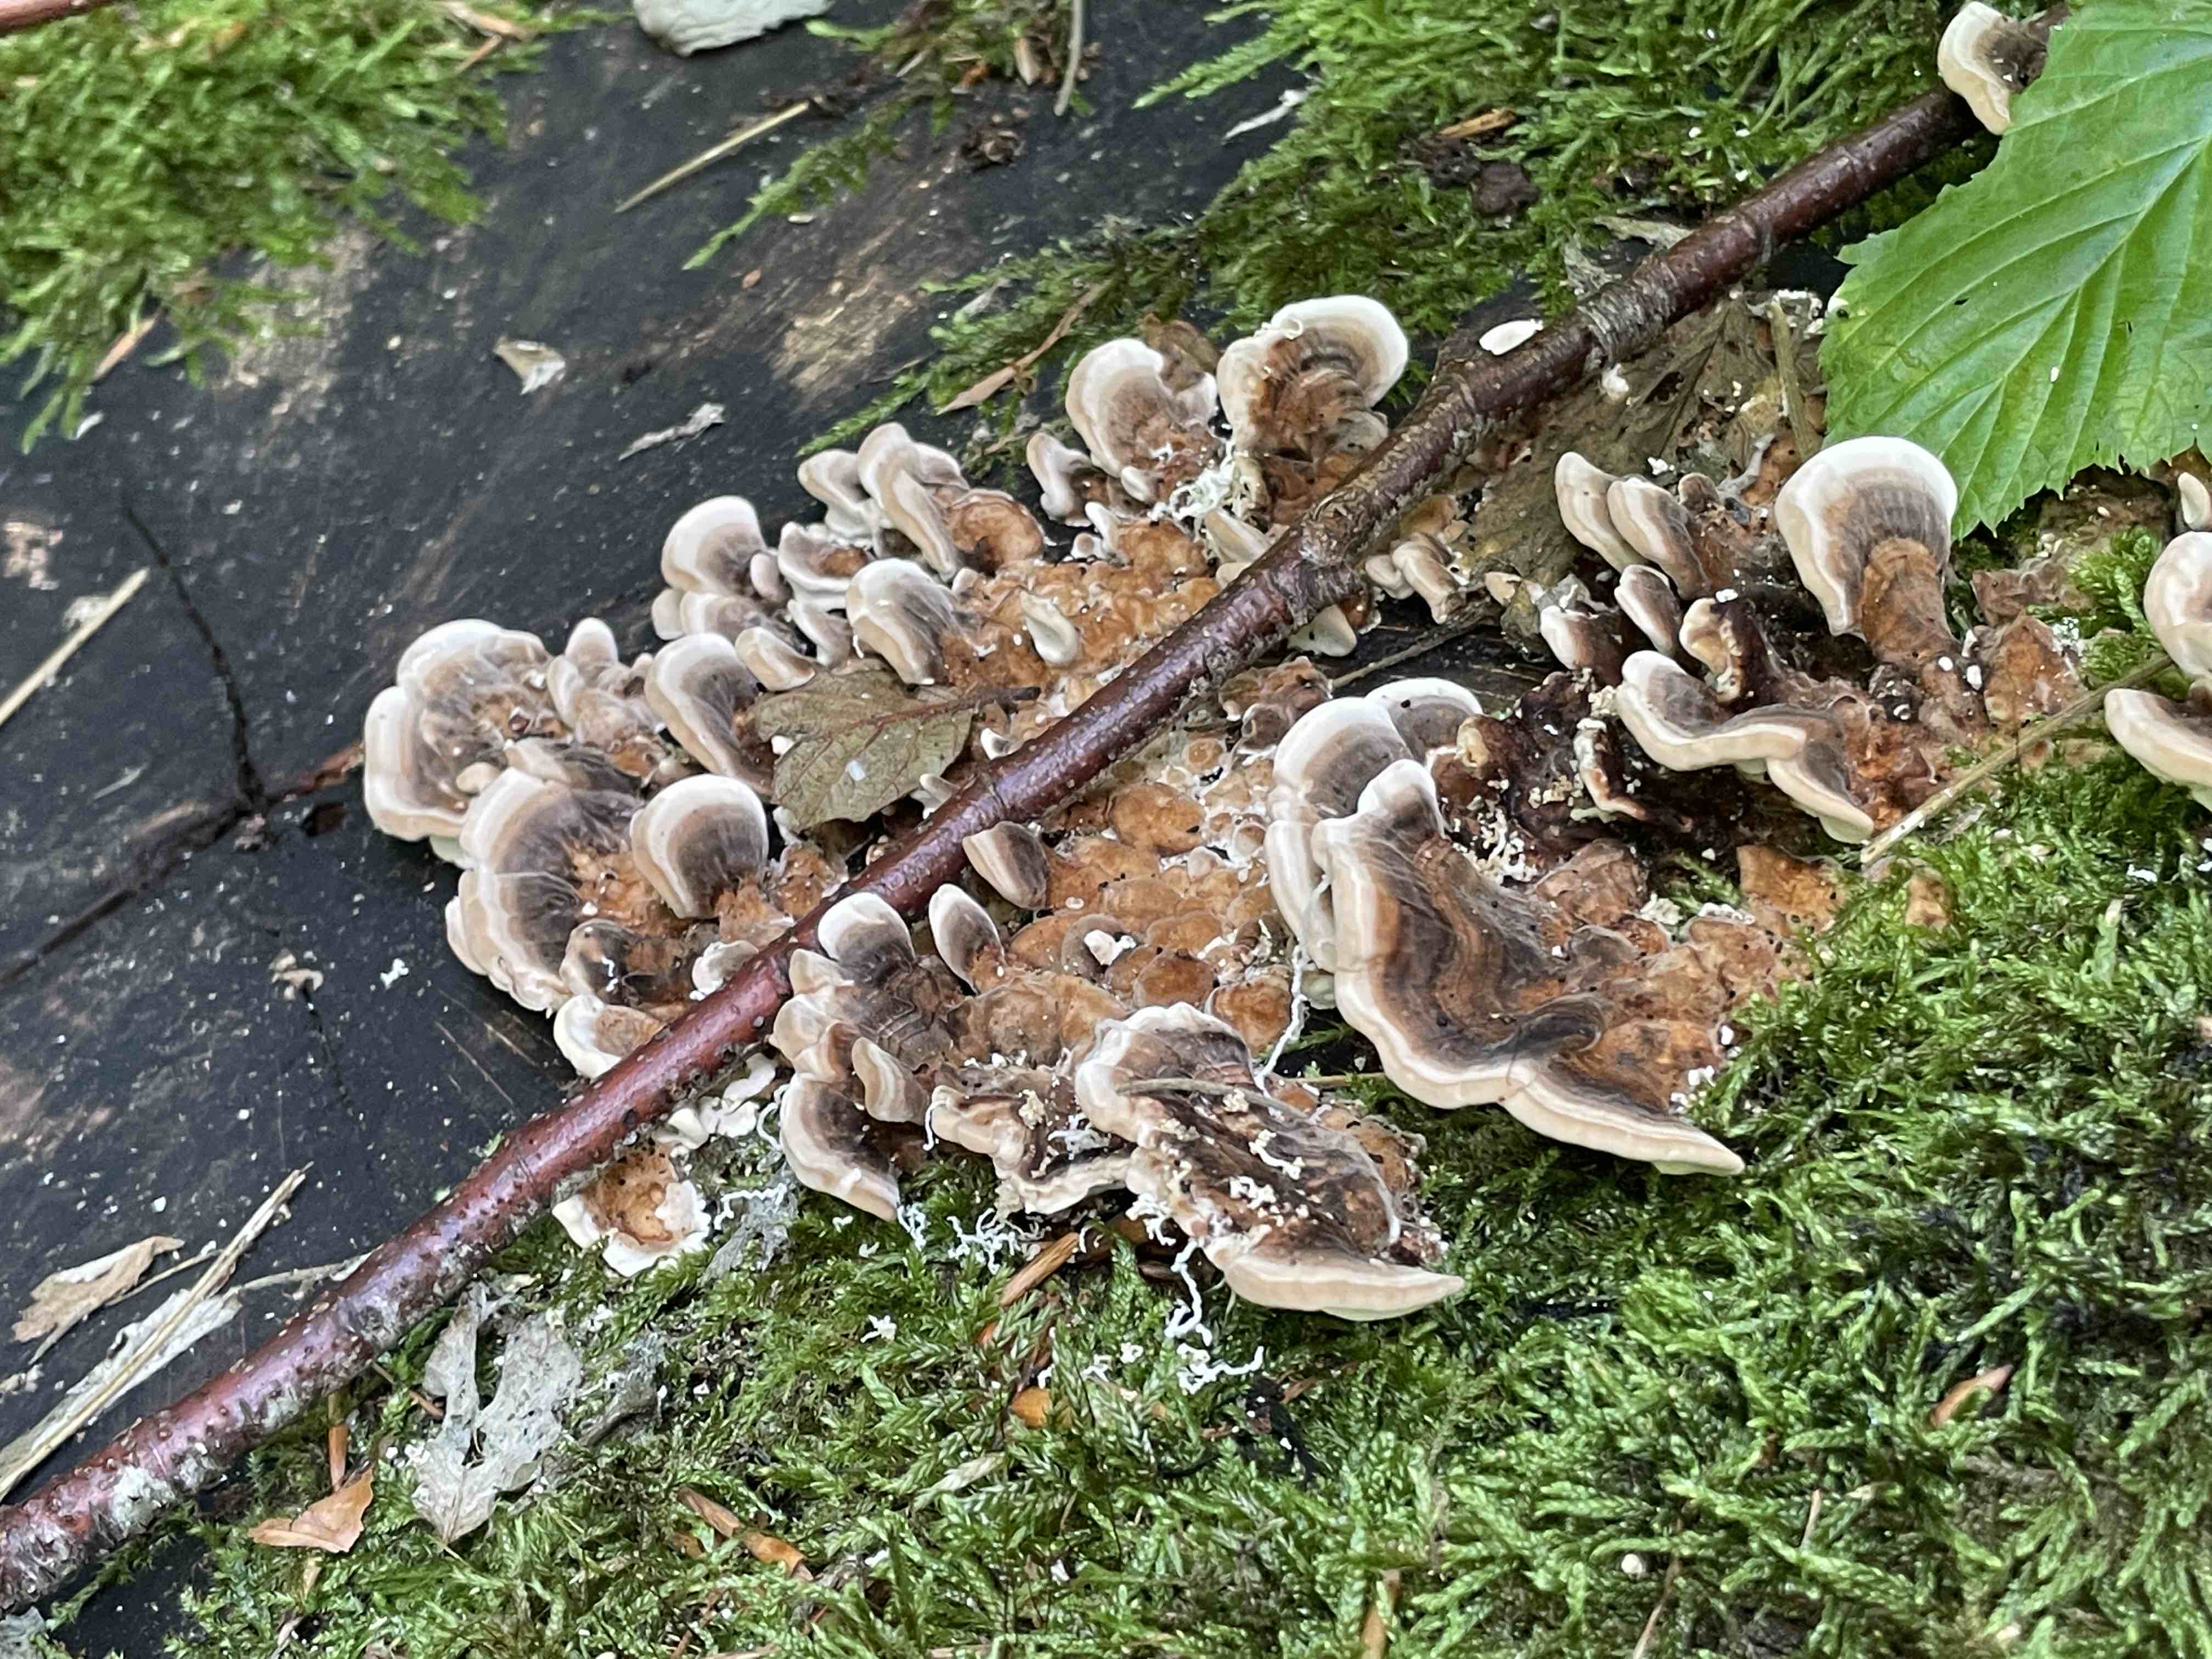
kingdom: Fungi
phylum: Basidiomycota
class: Agaricomycetes
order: Polyporales
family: Polyporaceae
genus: Trametes
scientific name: Trametes versicolor
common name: broget læderporesvamp
